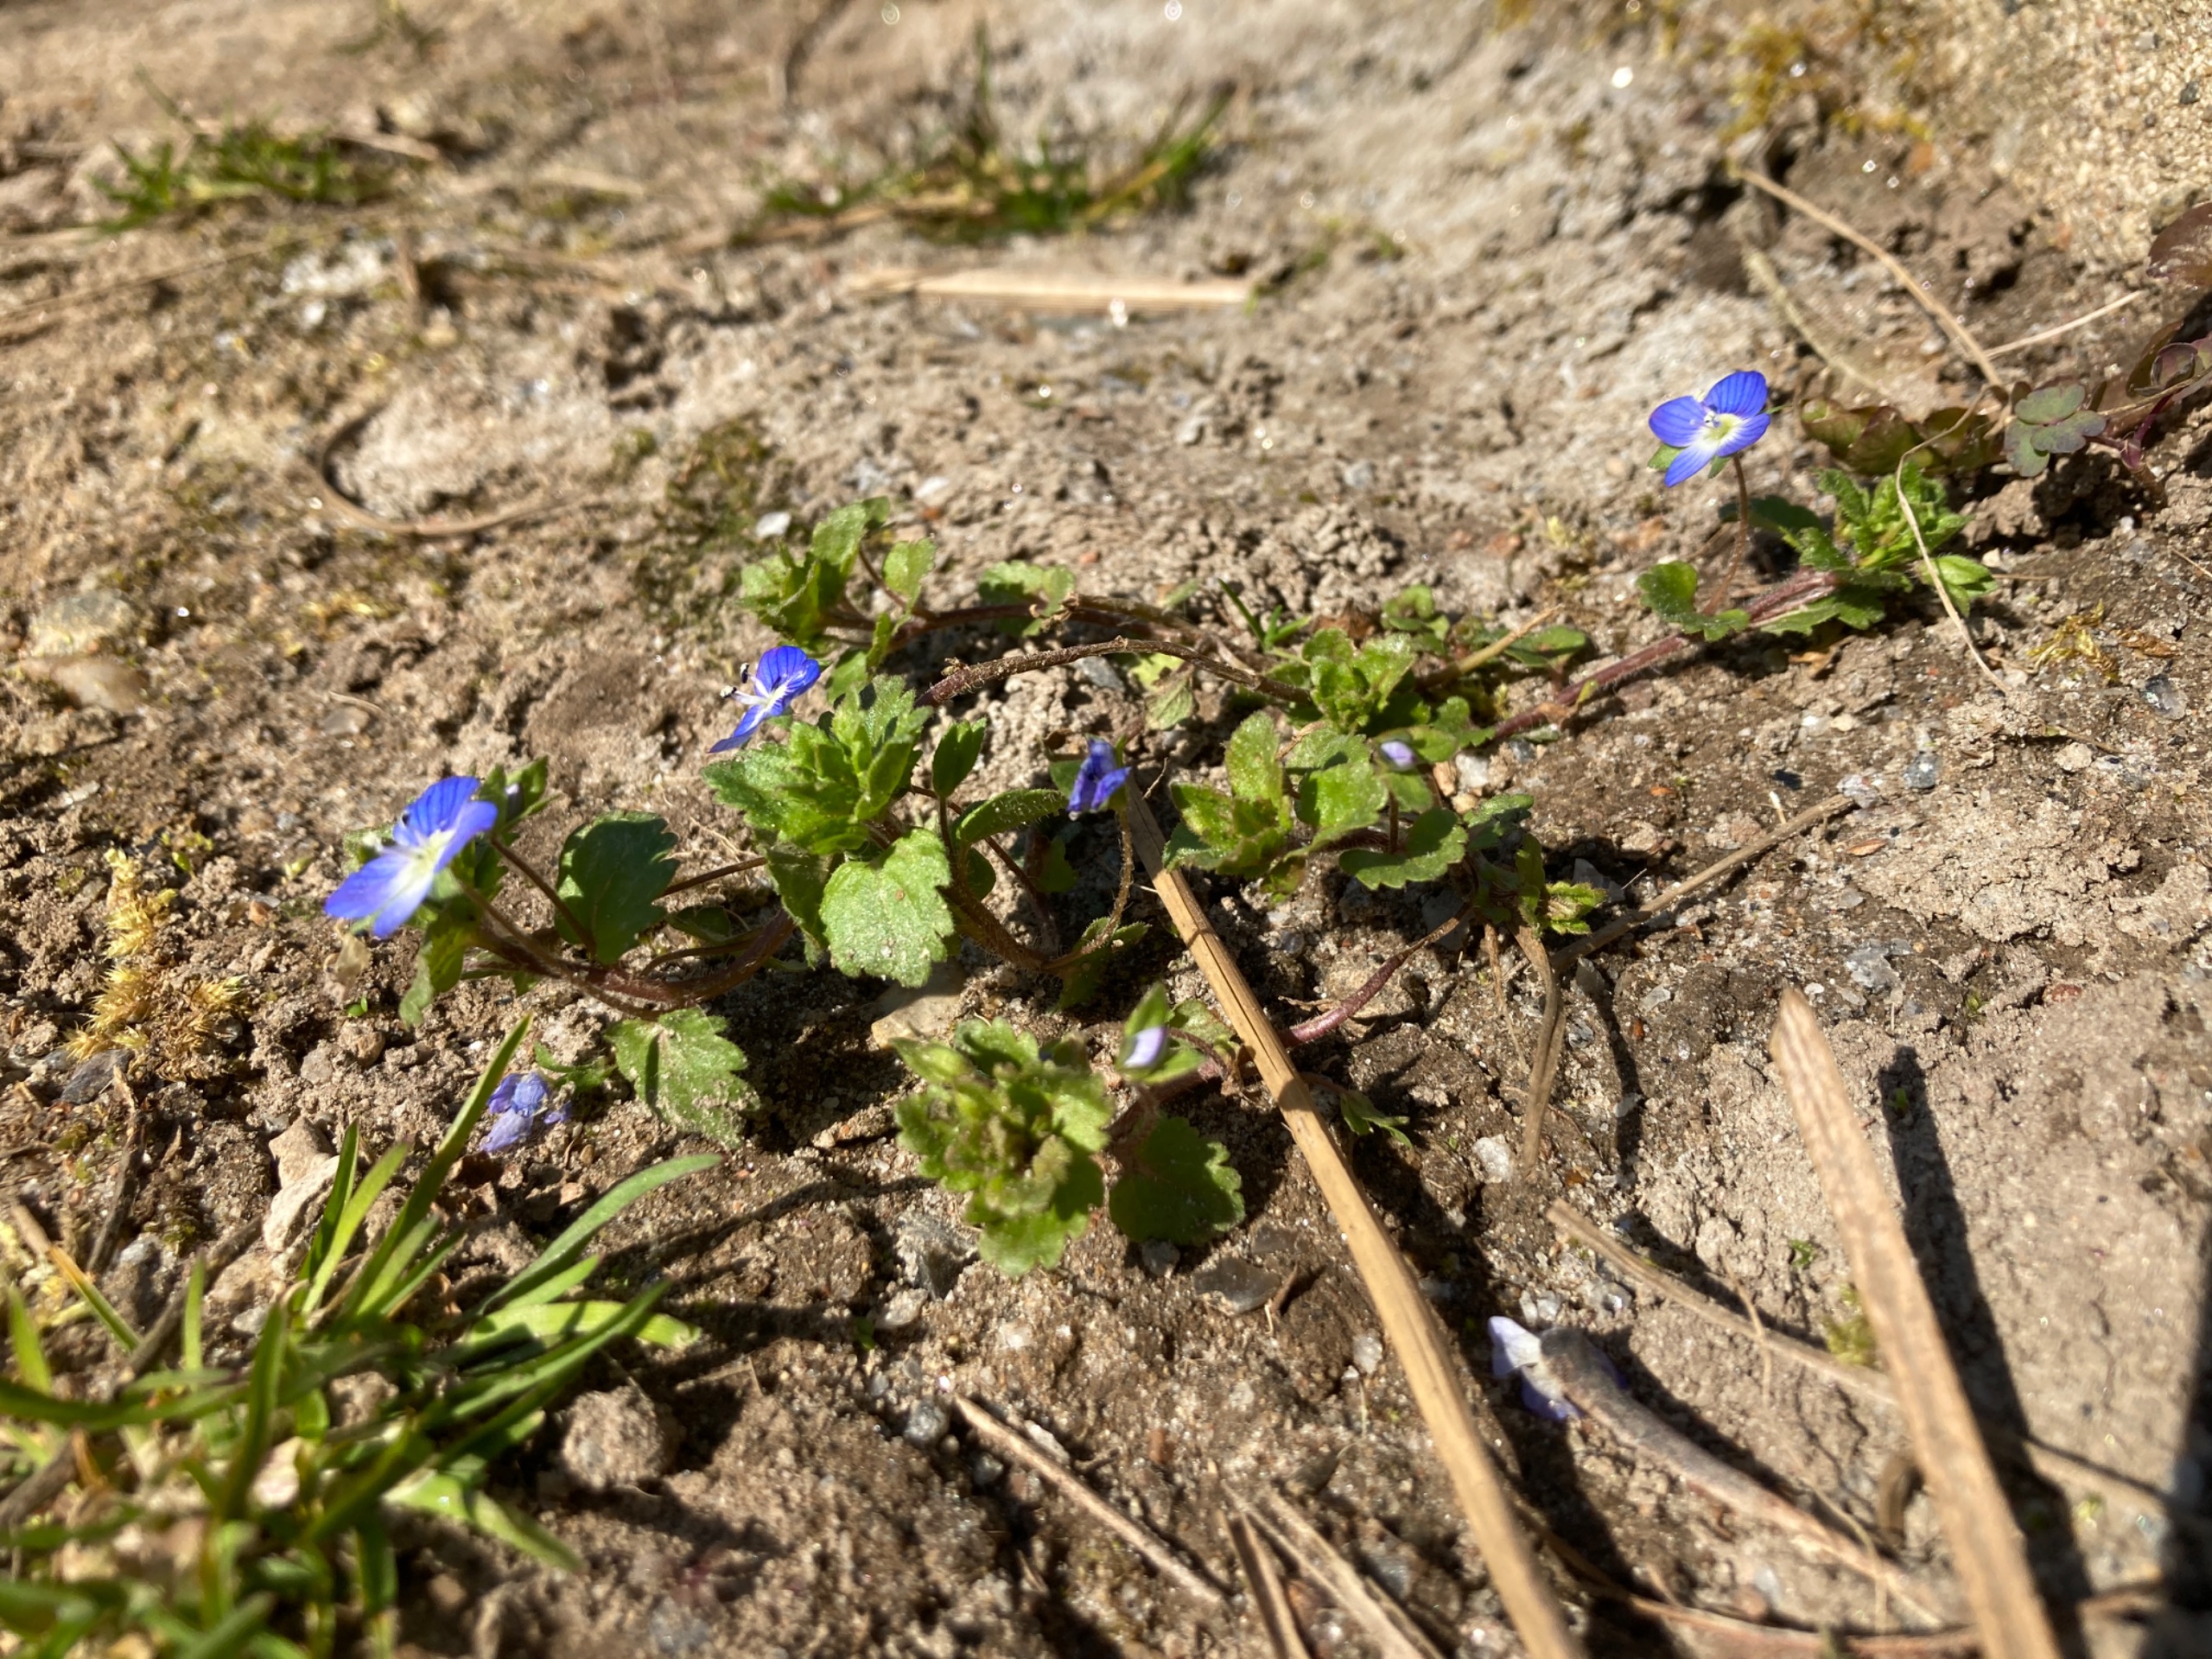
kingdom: Plantae
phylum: Tracheophyta
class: Magnoliopsida
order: Lamiales
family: Plantaginaceae
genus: Veronica
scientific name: Veronica persica
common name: Storkronet ærenpris
